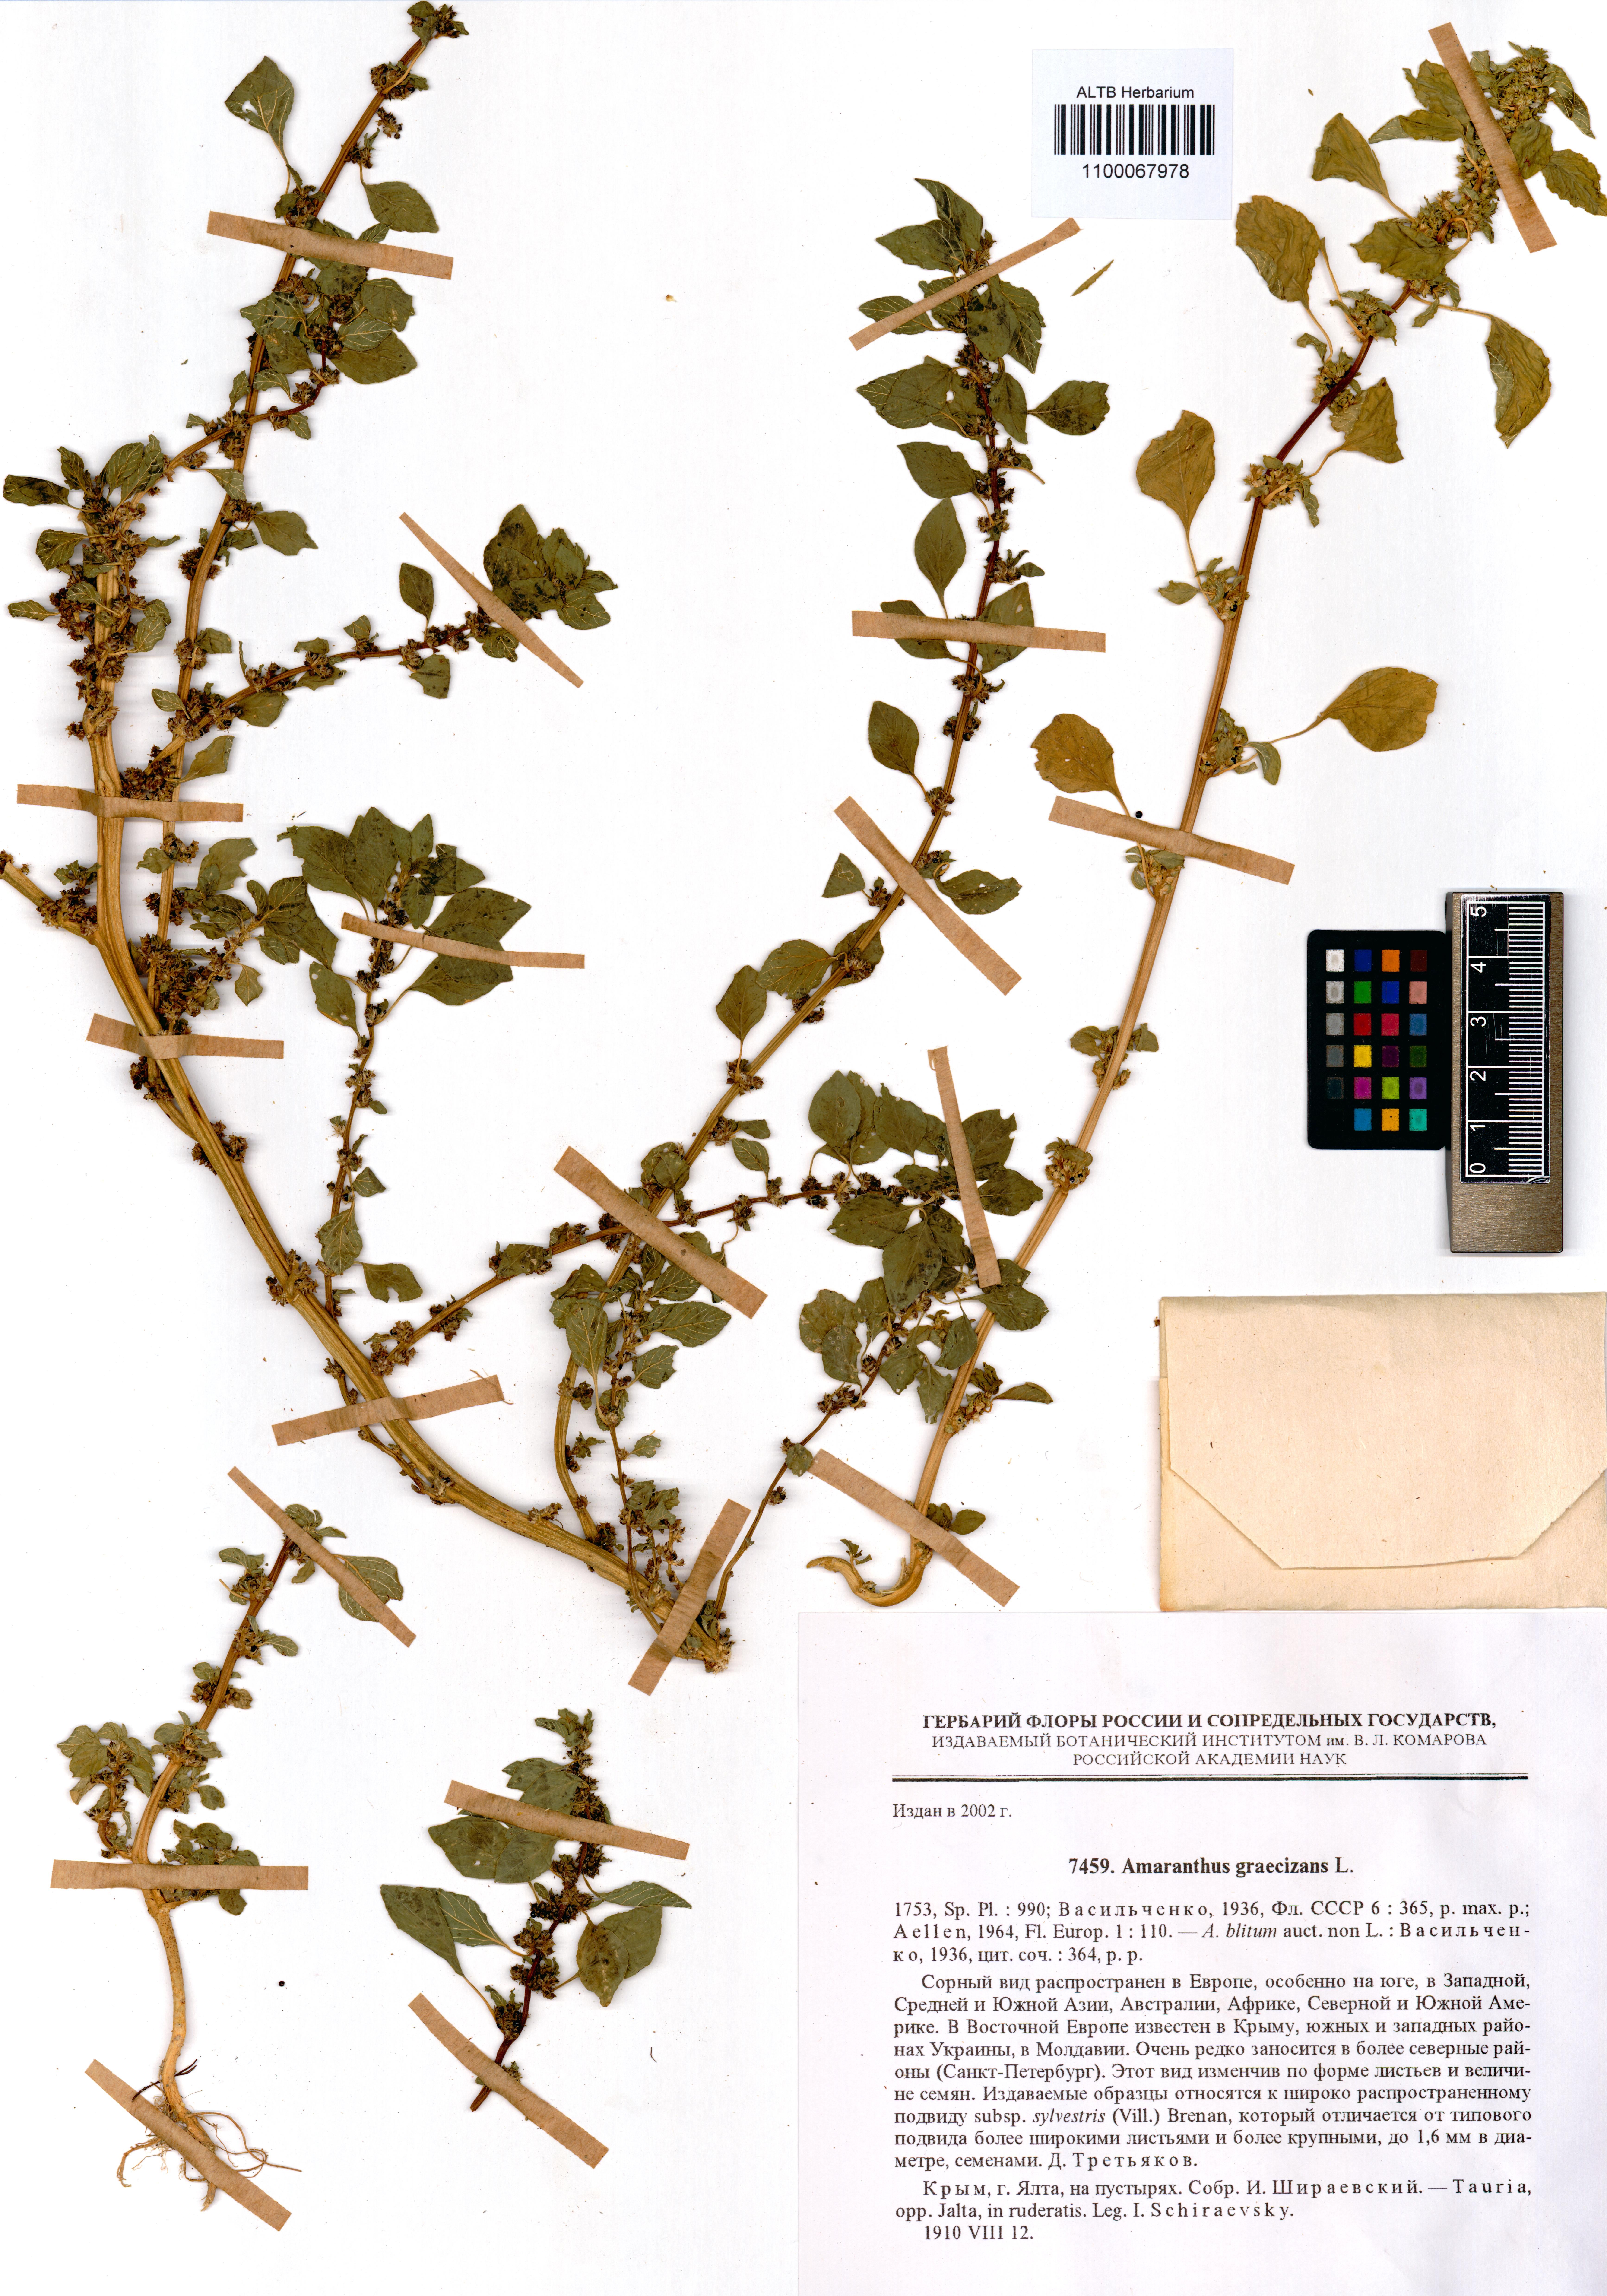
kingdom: Plantae
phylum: Tracheophyta
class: Magnoliopsida
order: Caryophyllales
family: Amaranthaceae
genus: Amaranthus
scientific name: Amaranthus graecizans
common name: Mediterranean amaranth
